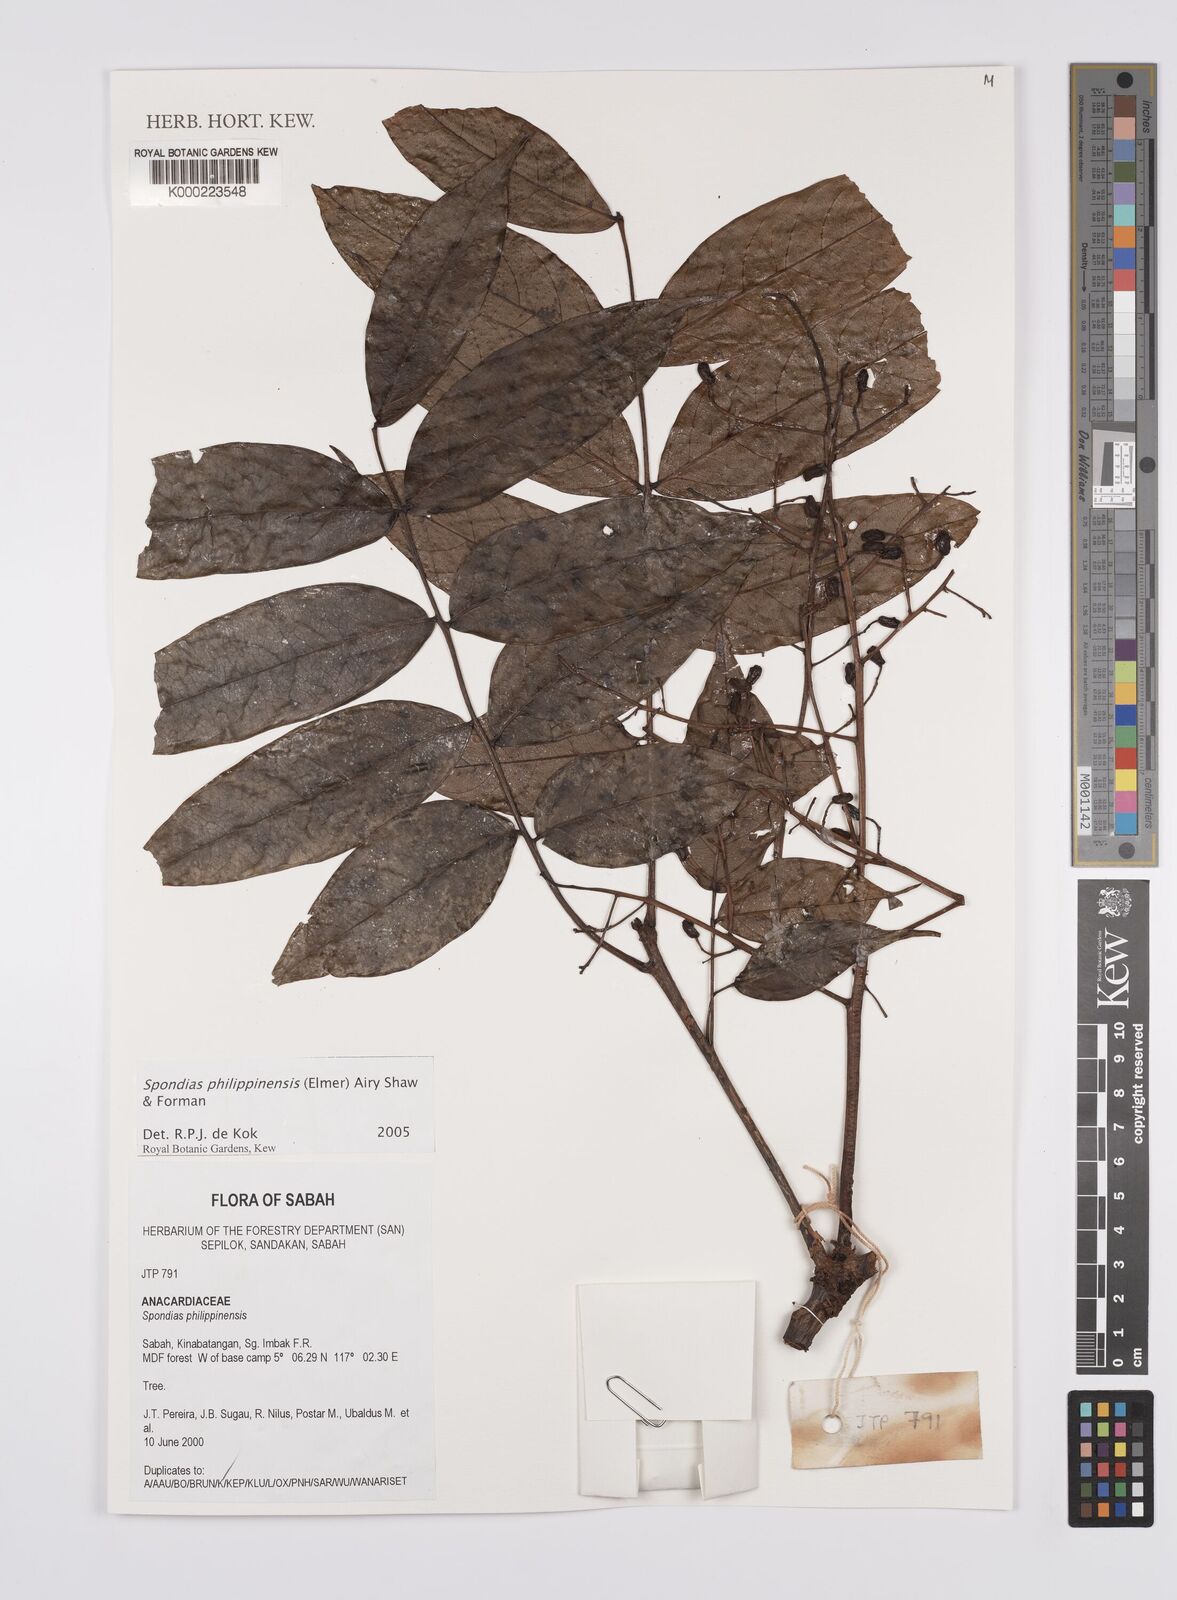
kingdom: Plantae
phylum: Tracheophyta
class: Magnoliopsida
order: Sapindales
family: Anacardiaceae
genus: Spondias
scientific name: Spondias philippinensis
